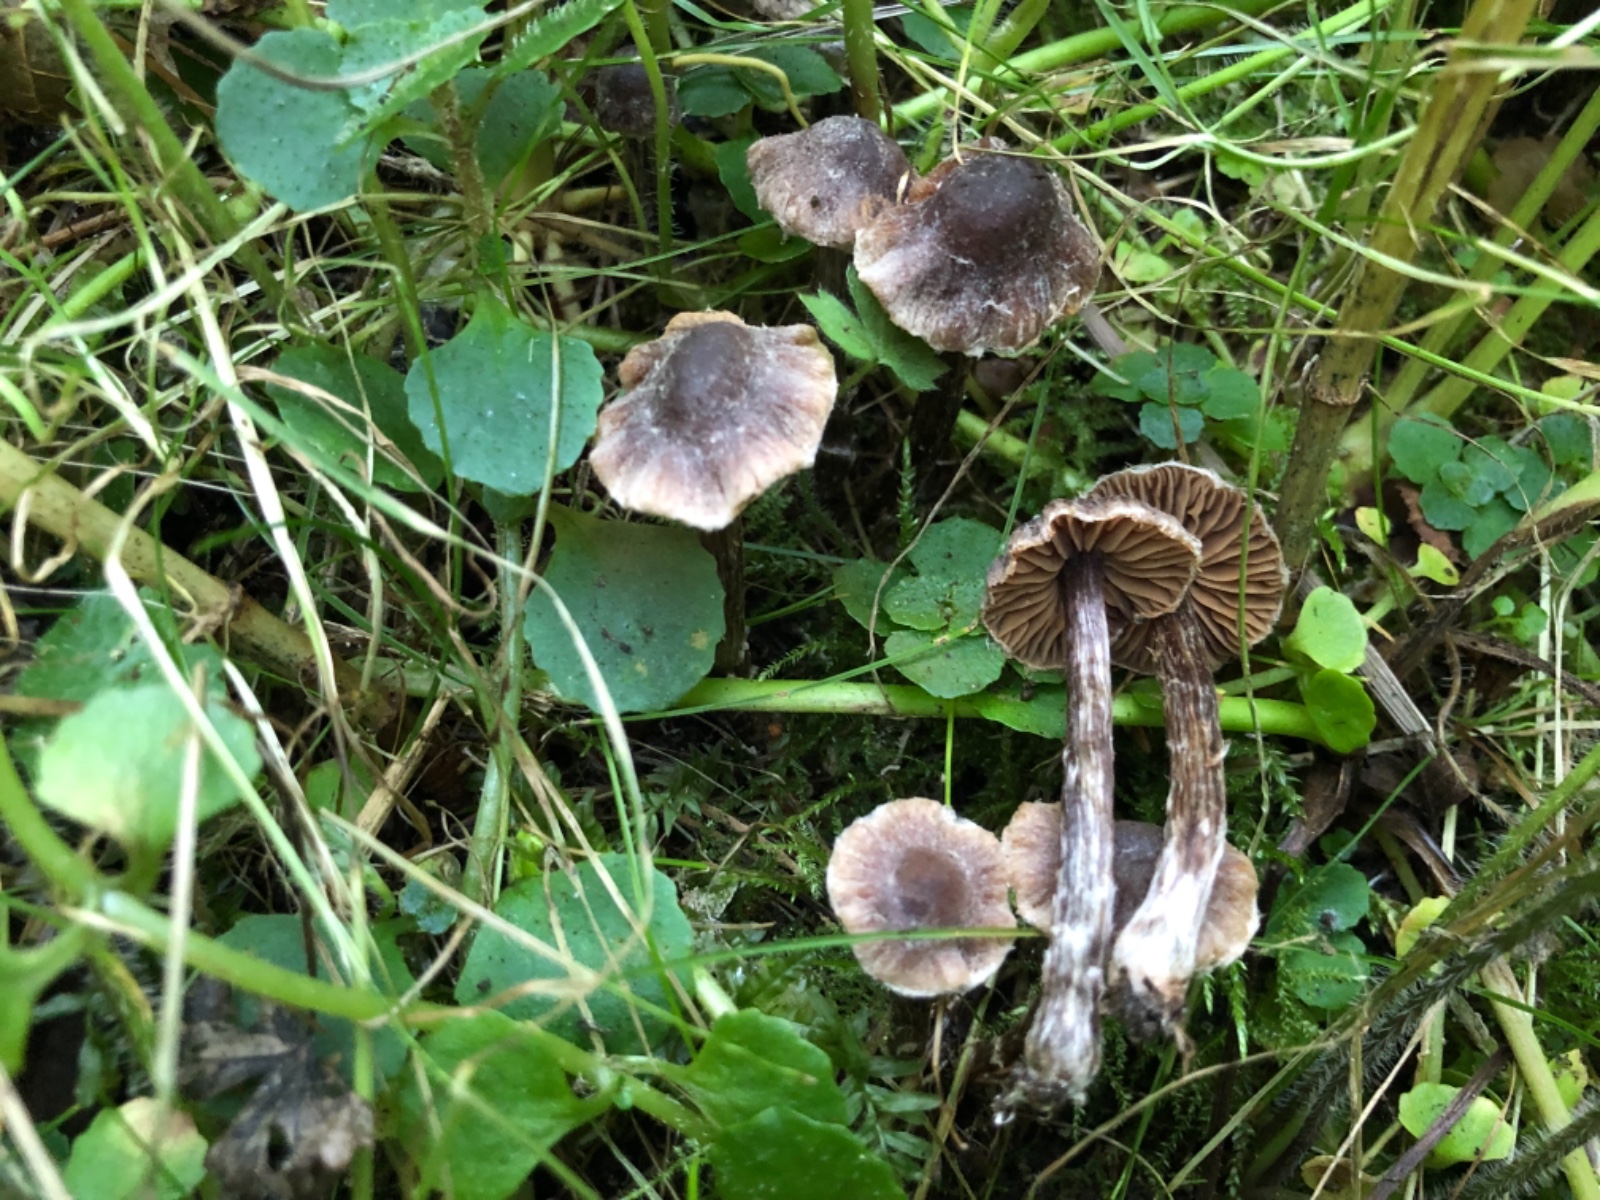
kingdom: Fungi
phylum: Basidiomycota
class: Agaricomycetes
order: Agaricales
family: Cortinariaceae
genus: Cortinarius
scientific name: Cortinarius griseocarneus
